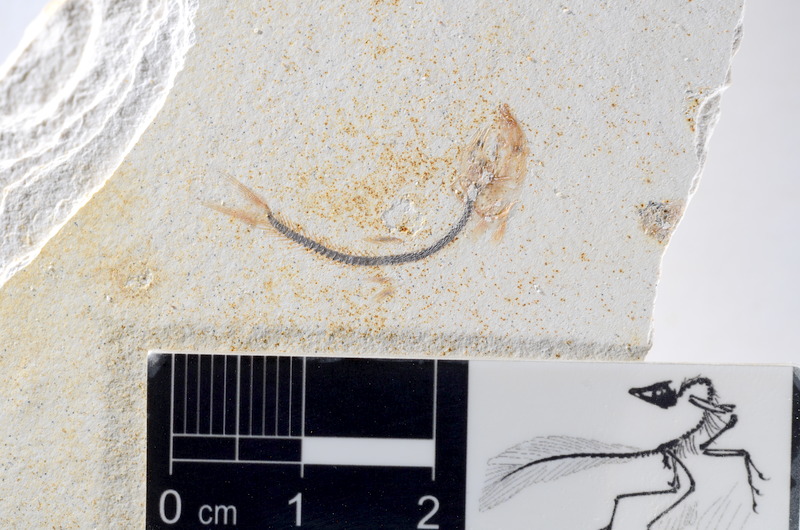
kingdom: Animalia
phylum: Chordata
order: Salmoniformes
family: Orthogonikleithridae
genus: Orthogonikleithrus
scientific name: Orthogonikleithrus hoelli
